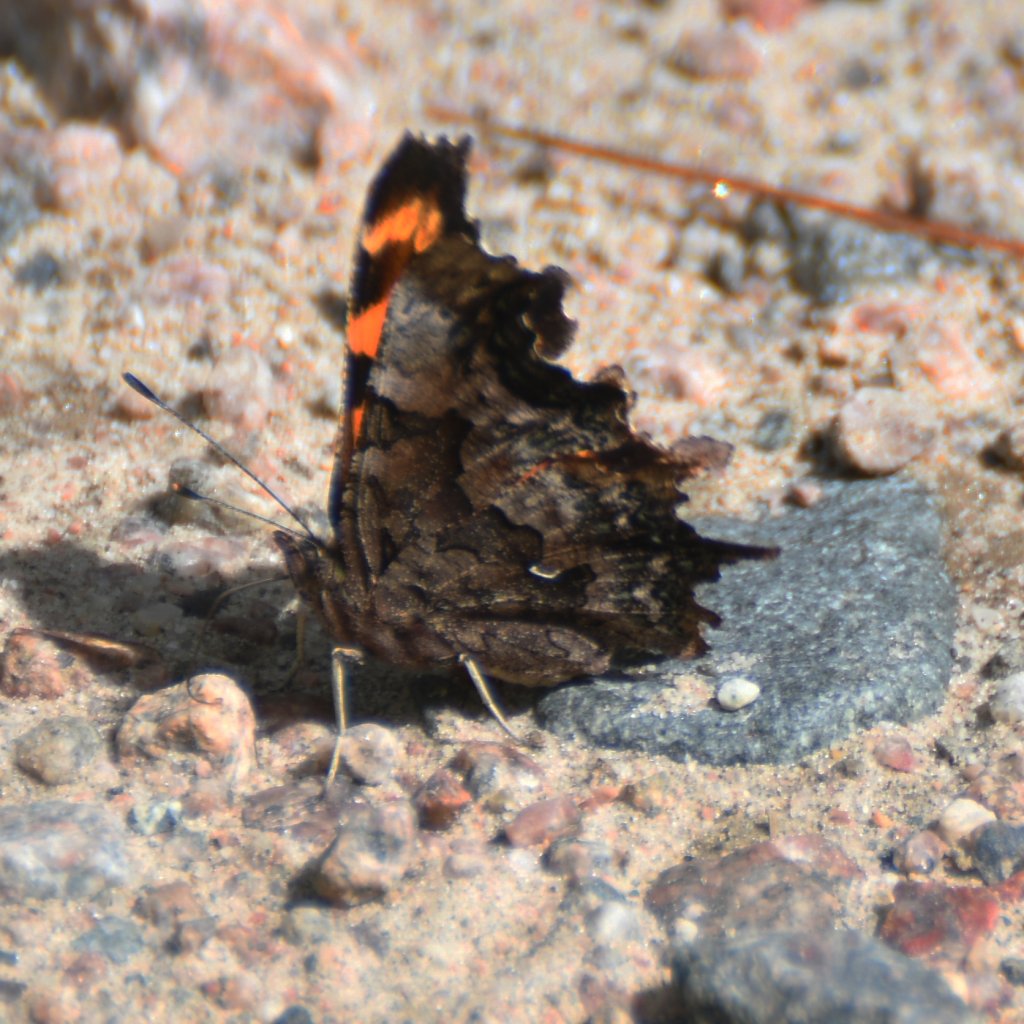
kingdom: Animalia
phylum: Arthropoda
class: Insecta
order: Lepidoptera
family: Nymphalidae
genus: Polygonia
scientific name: Polygonia faunus
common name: Green Comma
